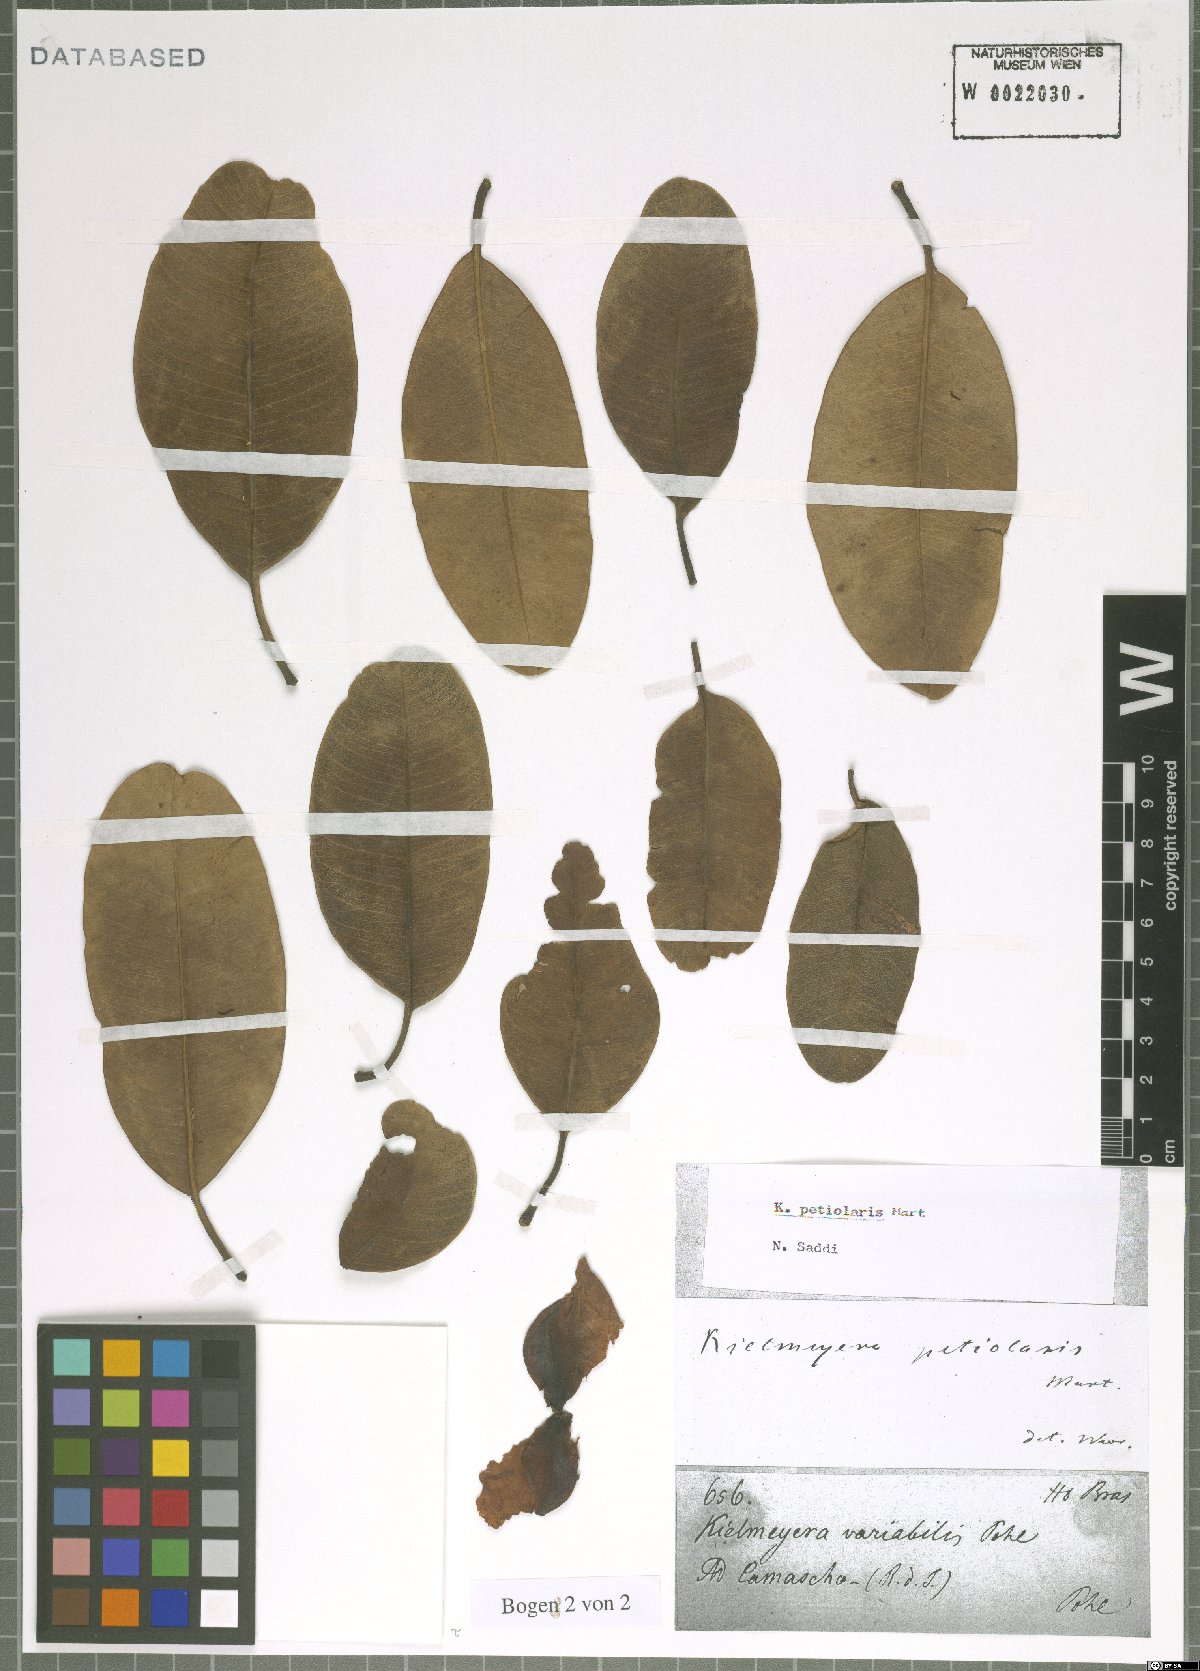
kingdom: Plantae
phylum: Tracheophyta
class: Magnoliopsida
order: Malpighiales
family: Calophyllaceae
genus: Kielmeyera
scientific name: Kielmeyera petiolaris
